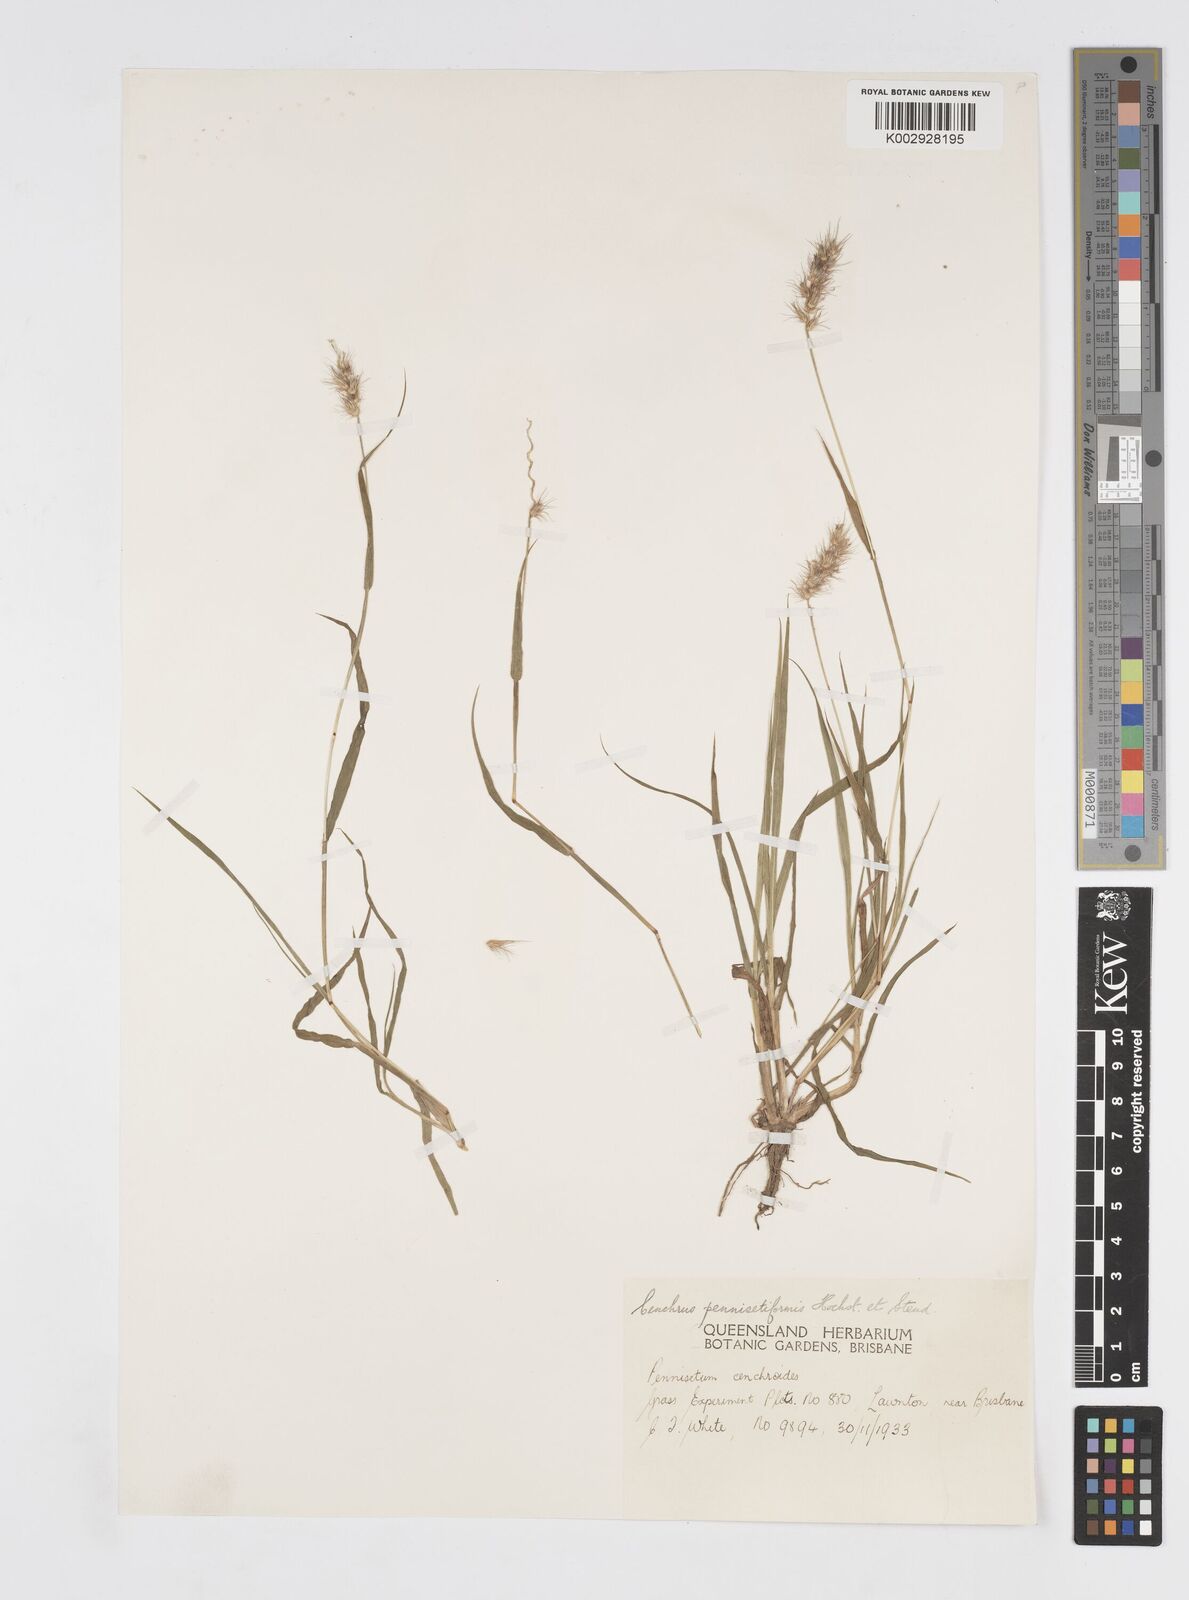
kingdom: Plantae
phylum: Tracheophyta
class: Liliopsida
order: Poales
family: Poaceae
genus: Cenchrus
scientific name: Cenchrus pennisetiformis
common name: Cloncurry
